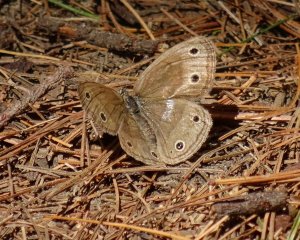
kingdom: Animalia
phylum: Arthropoda
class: Insecta
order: Lepidoptera
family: Nymphalidae
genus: Euptychia
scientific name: Euptychia cymela
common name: Little Wood Satyr
